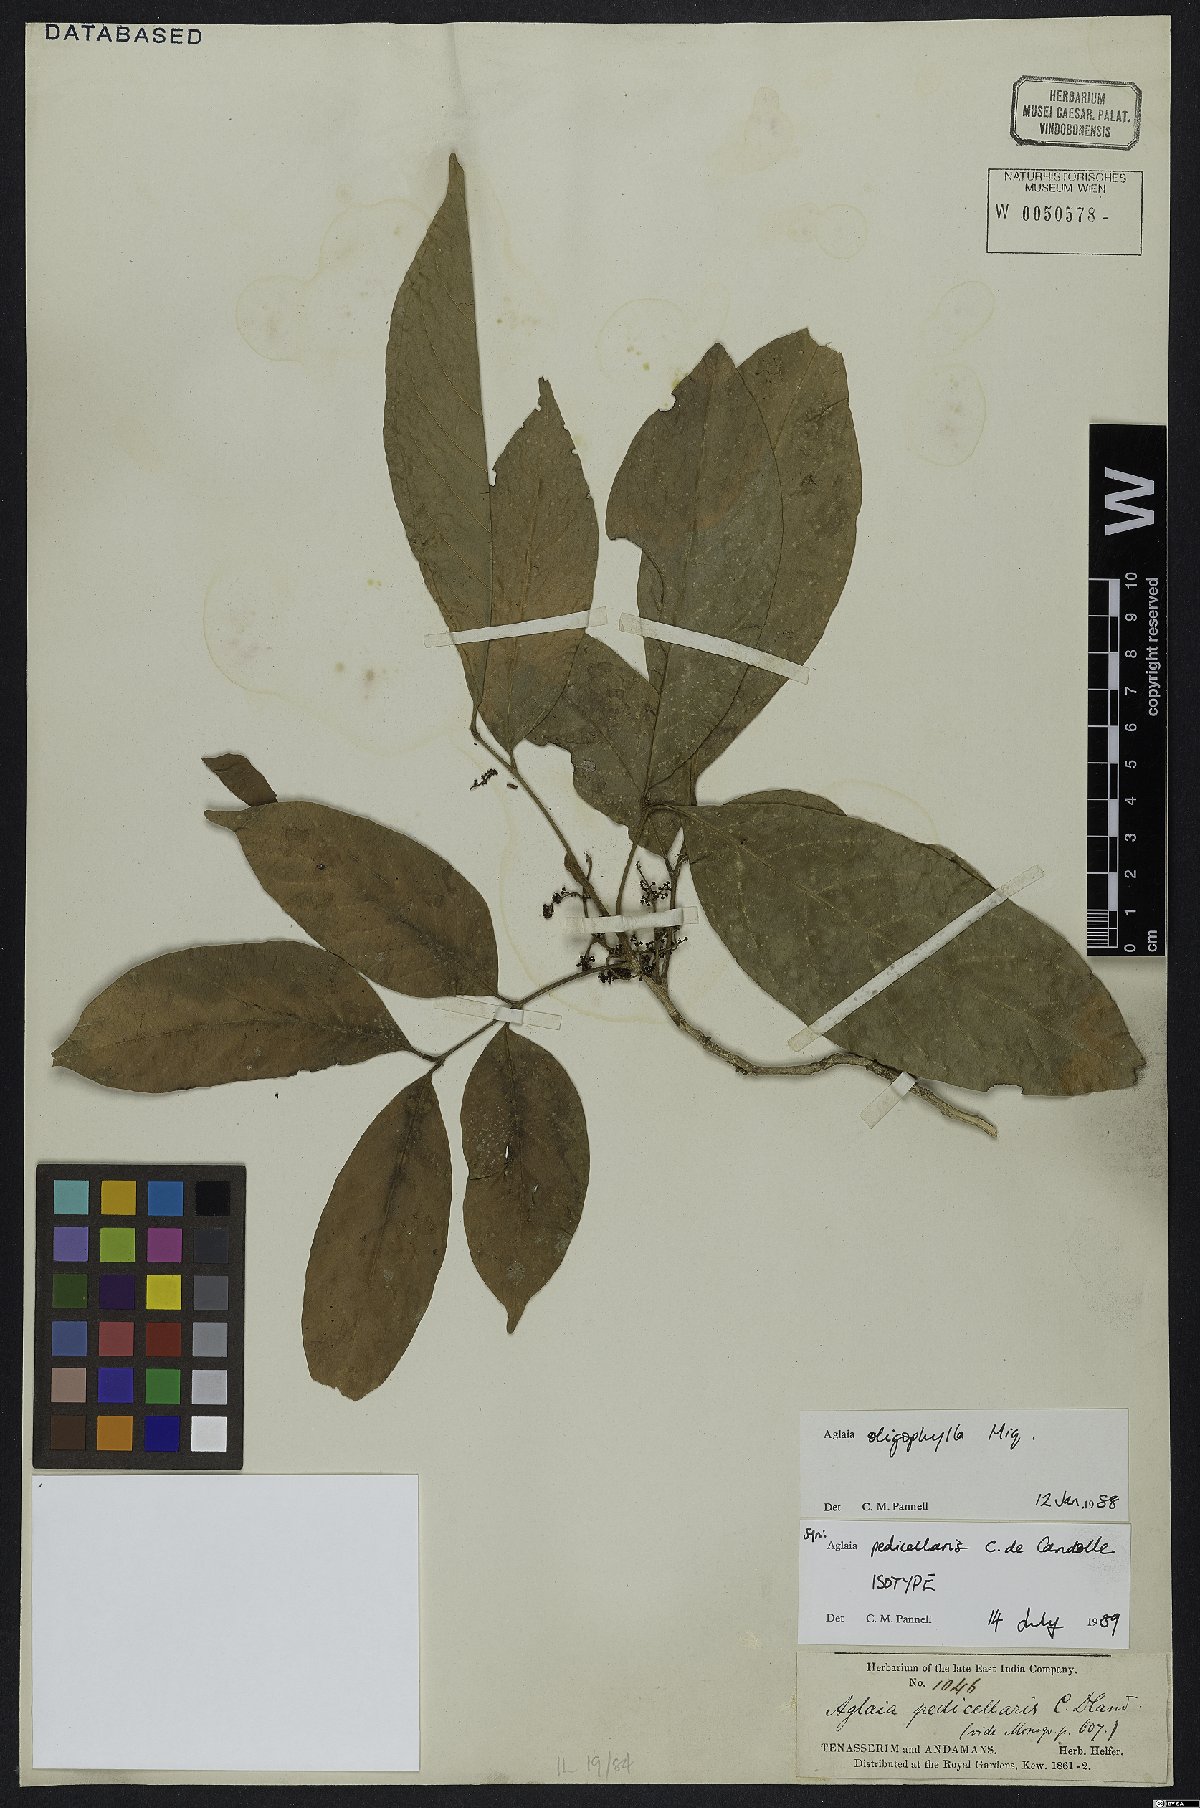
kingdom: Plantae
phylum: Tracheophyta
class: Magnoliopsida
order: Sapindales
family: Meliaceae
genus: Aglaia
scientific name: Aglaia oligophylla
